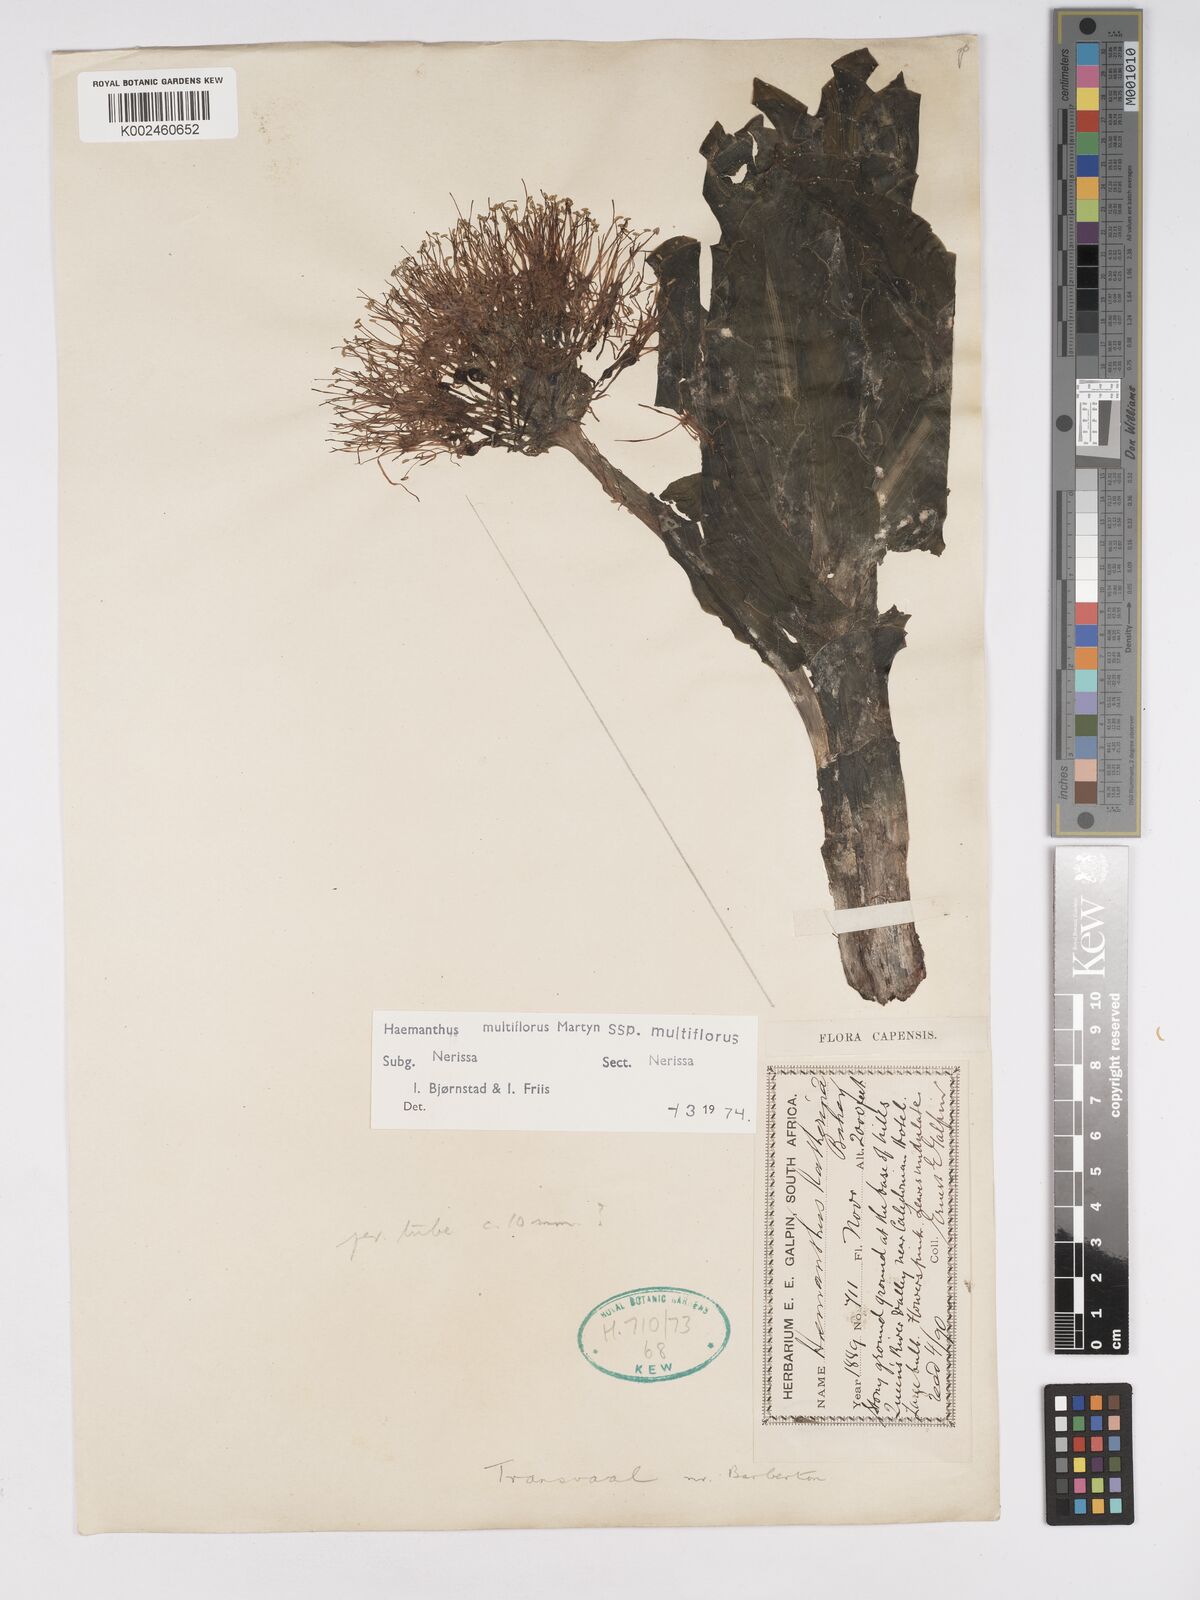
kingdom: Plantae
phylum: Tracheophyta
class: Liliopsida
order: Asparagales
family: Amaryllidaceae
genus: Scadoxus
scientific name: Scadoxus multiflorus
